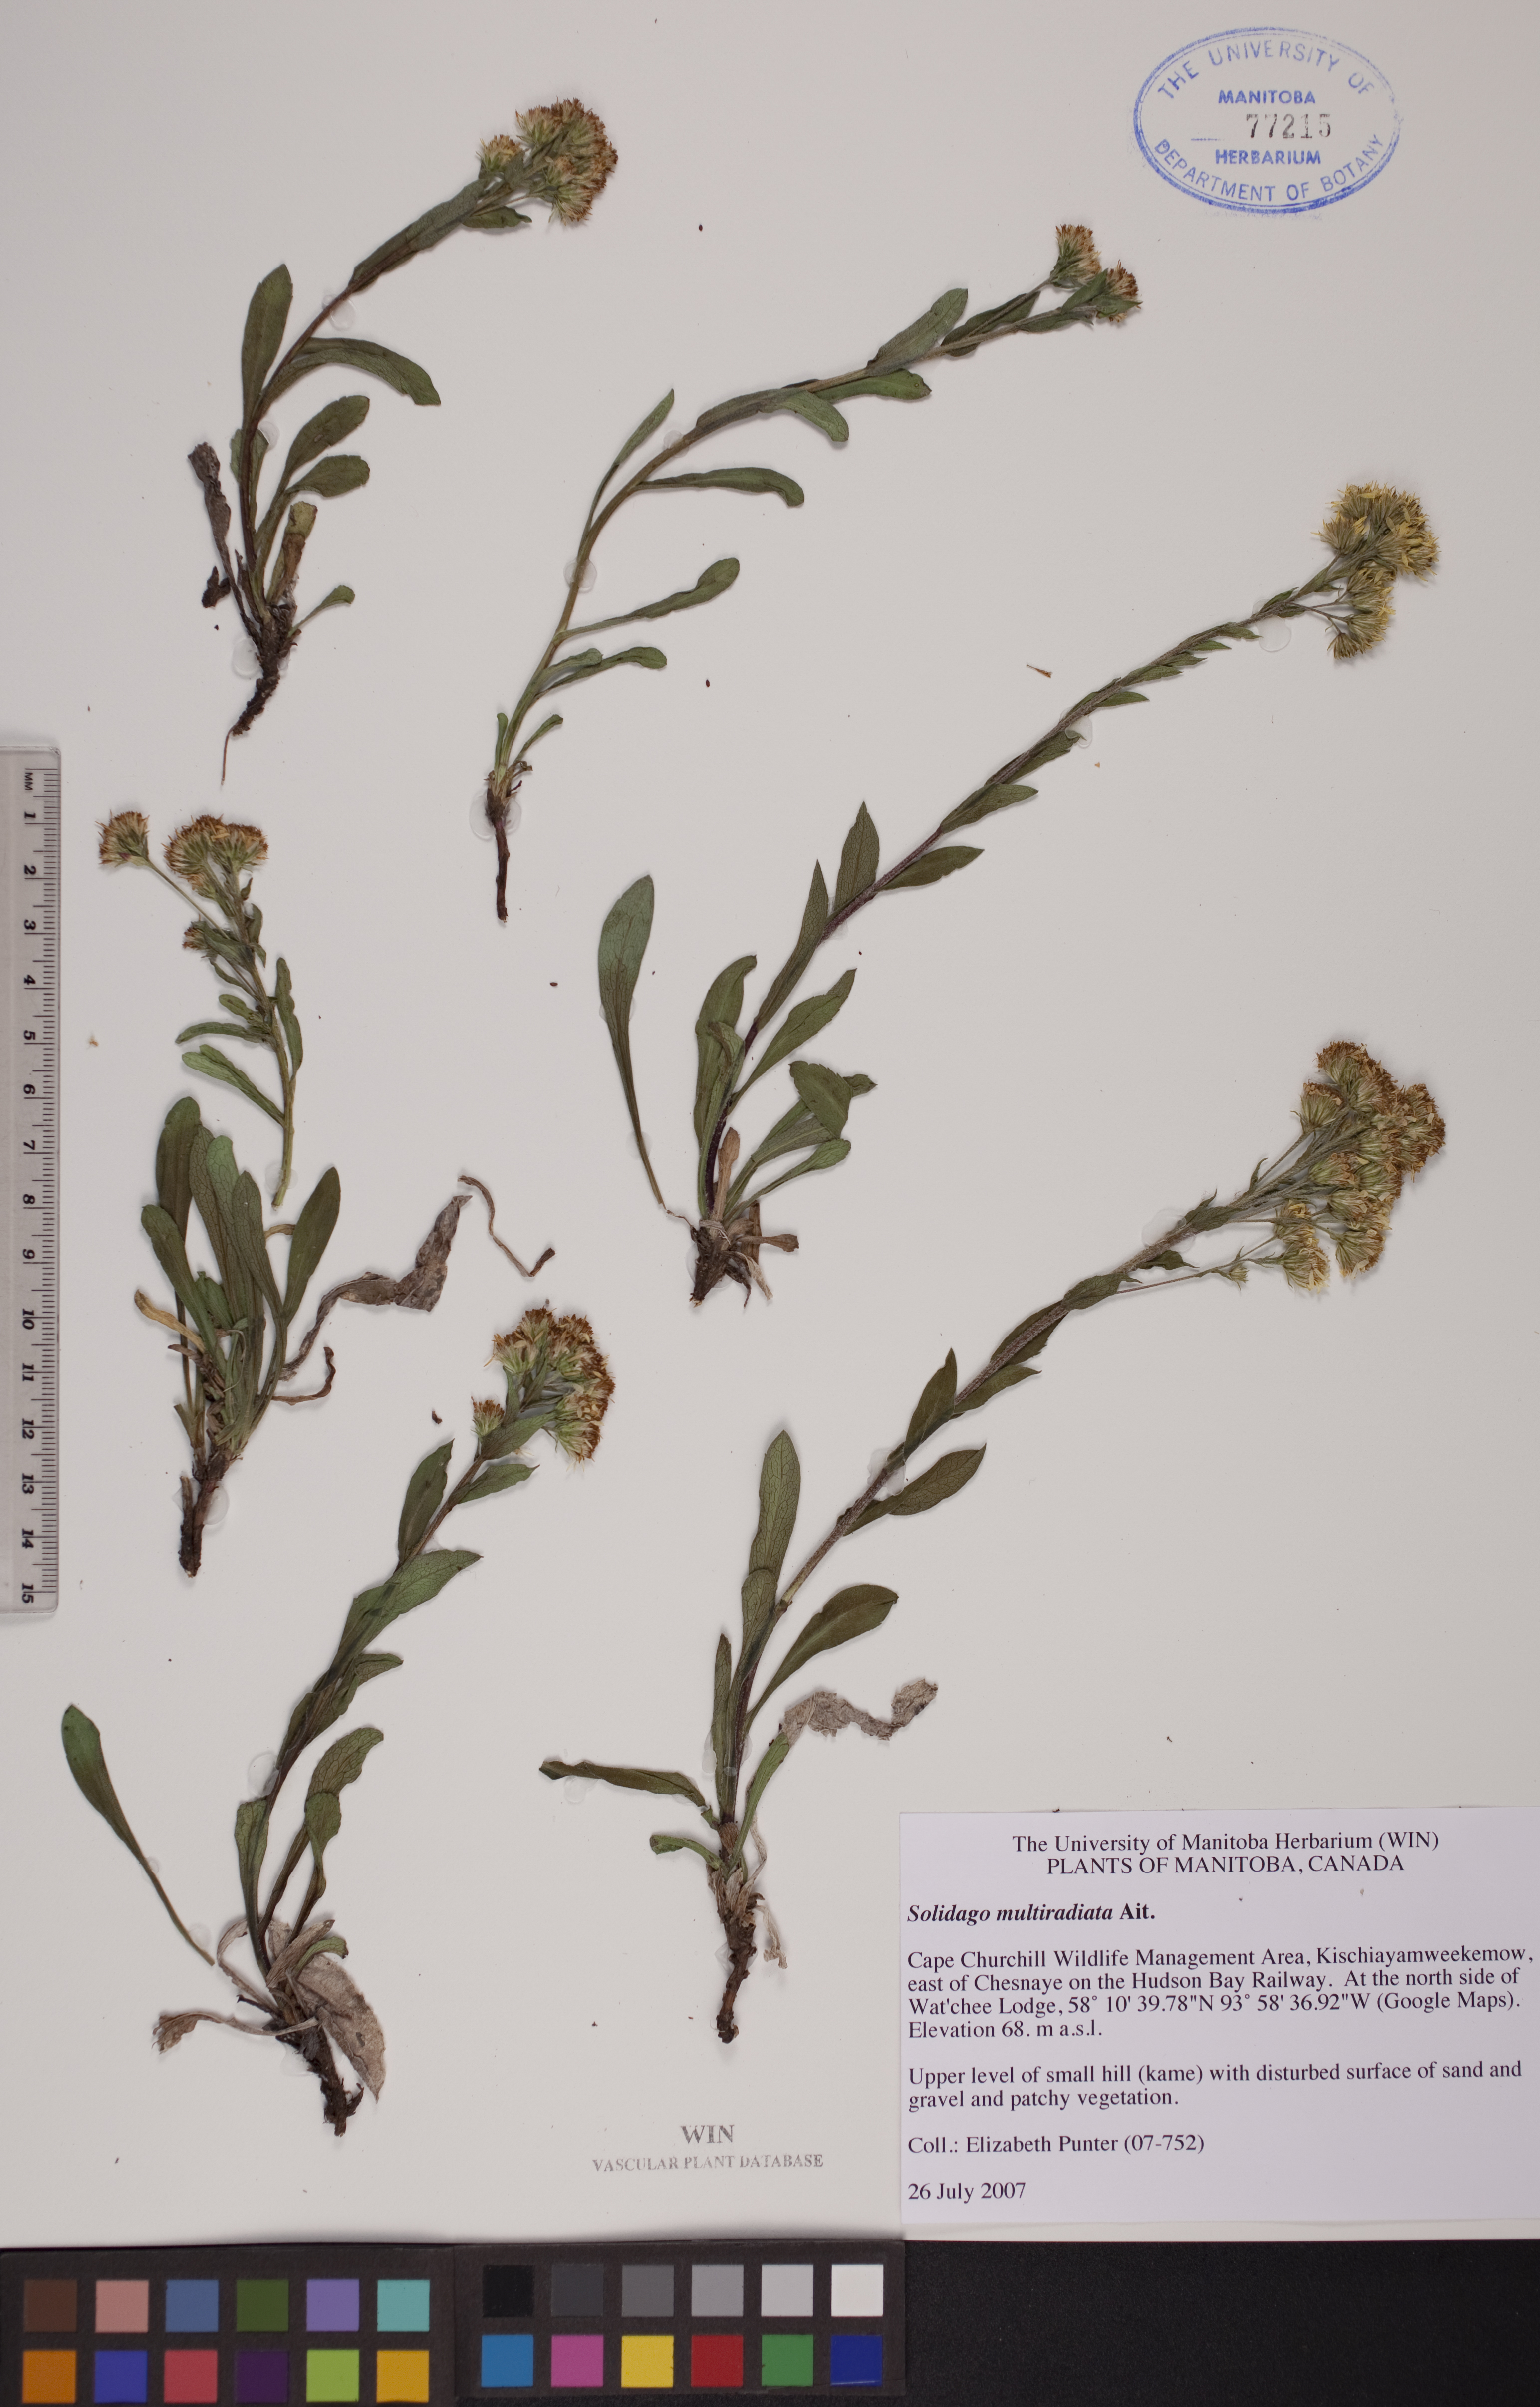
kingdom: Plantae
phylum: Tracheophyta
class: Magnoliopsida
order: Asterales
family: Asteraceae
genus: Solidago
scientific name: Solidago multiradiata
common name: Northern goldenrod
